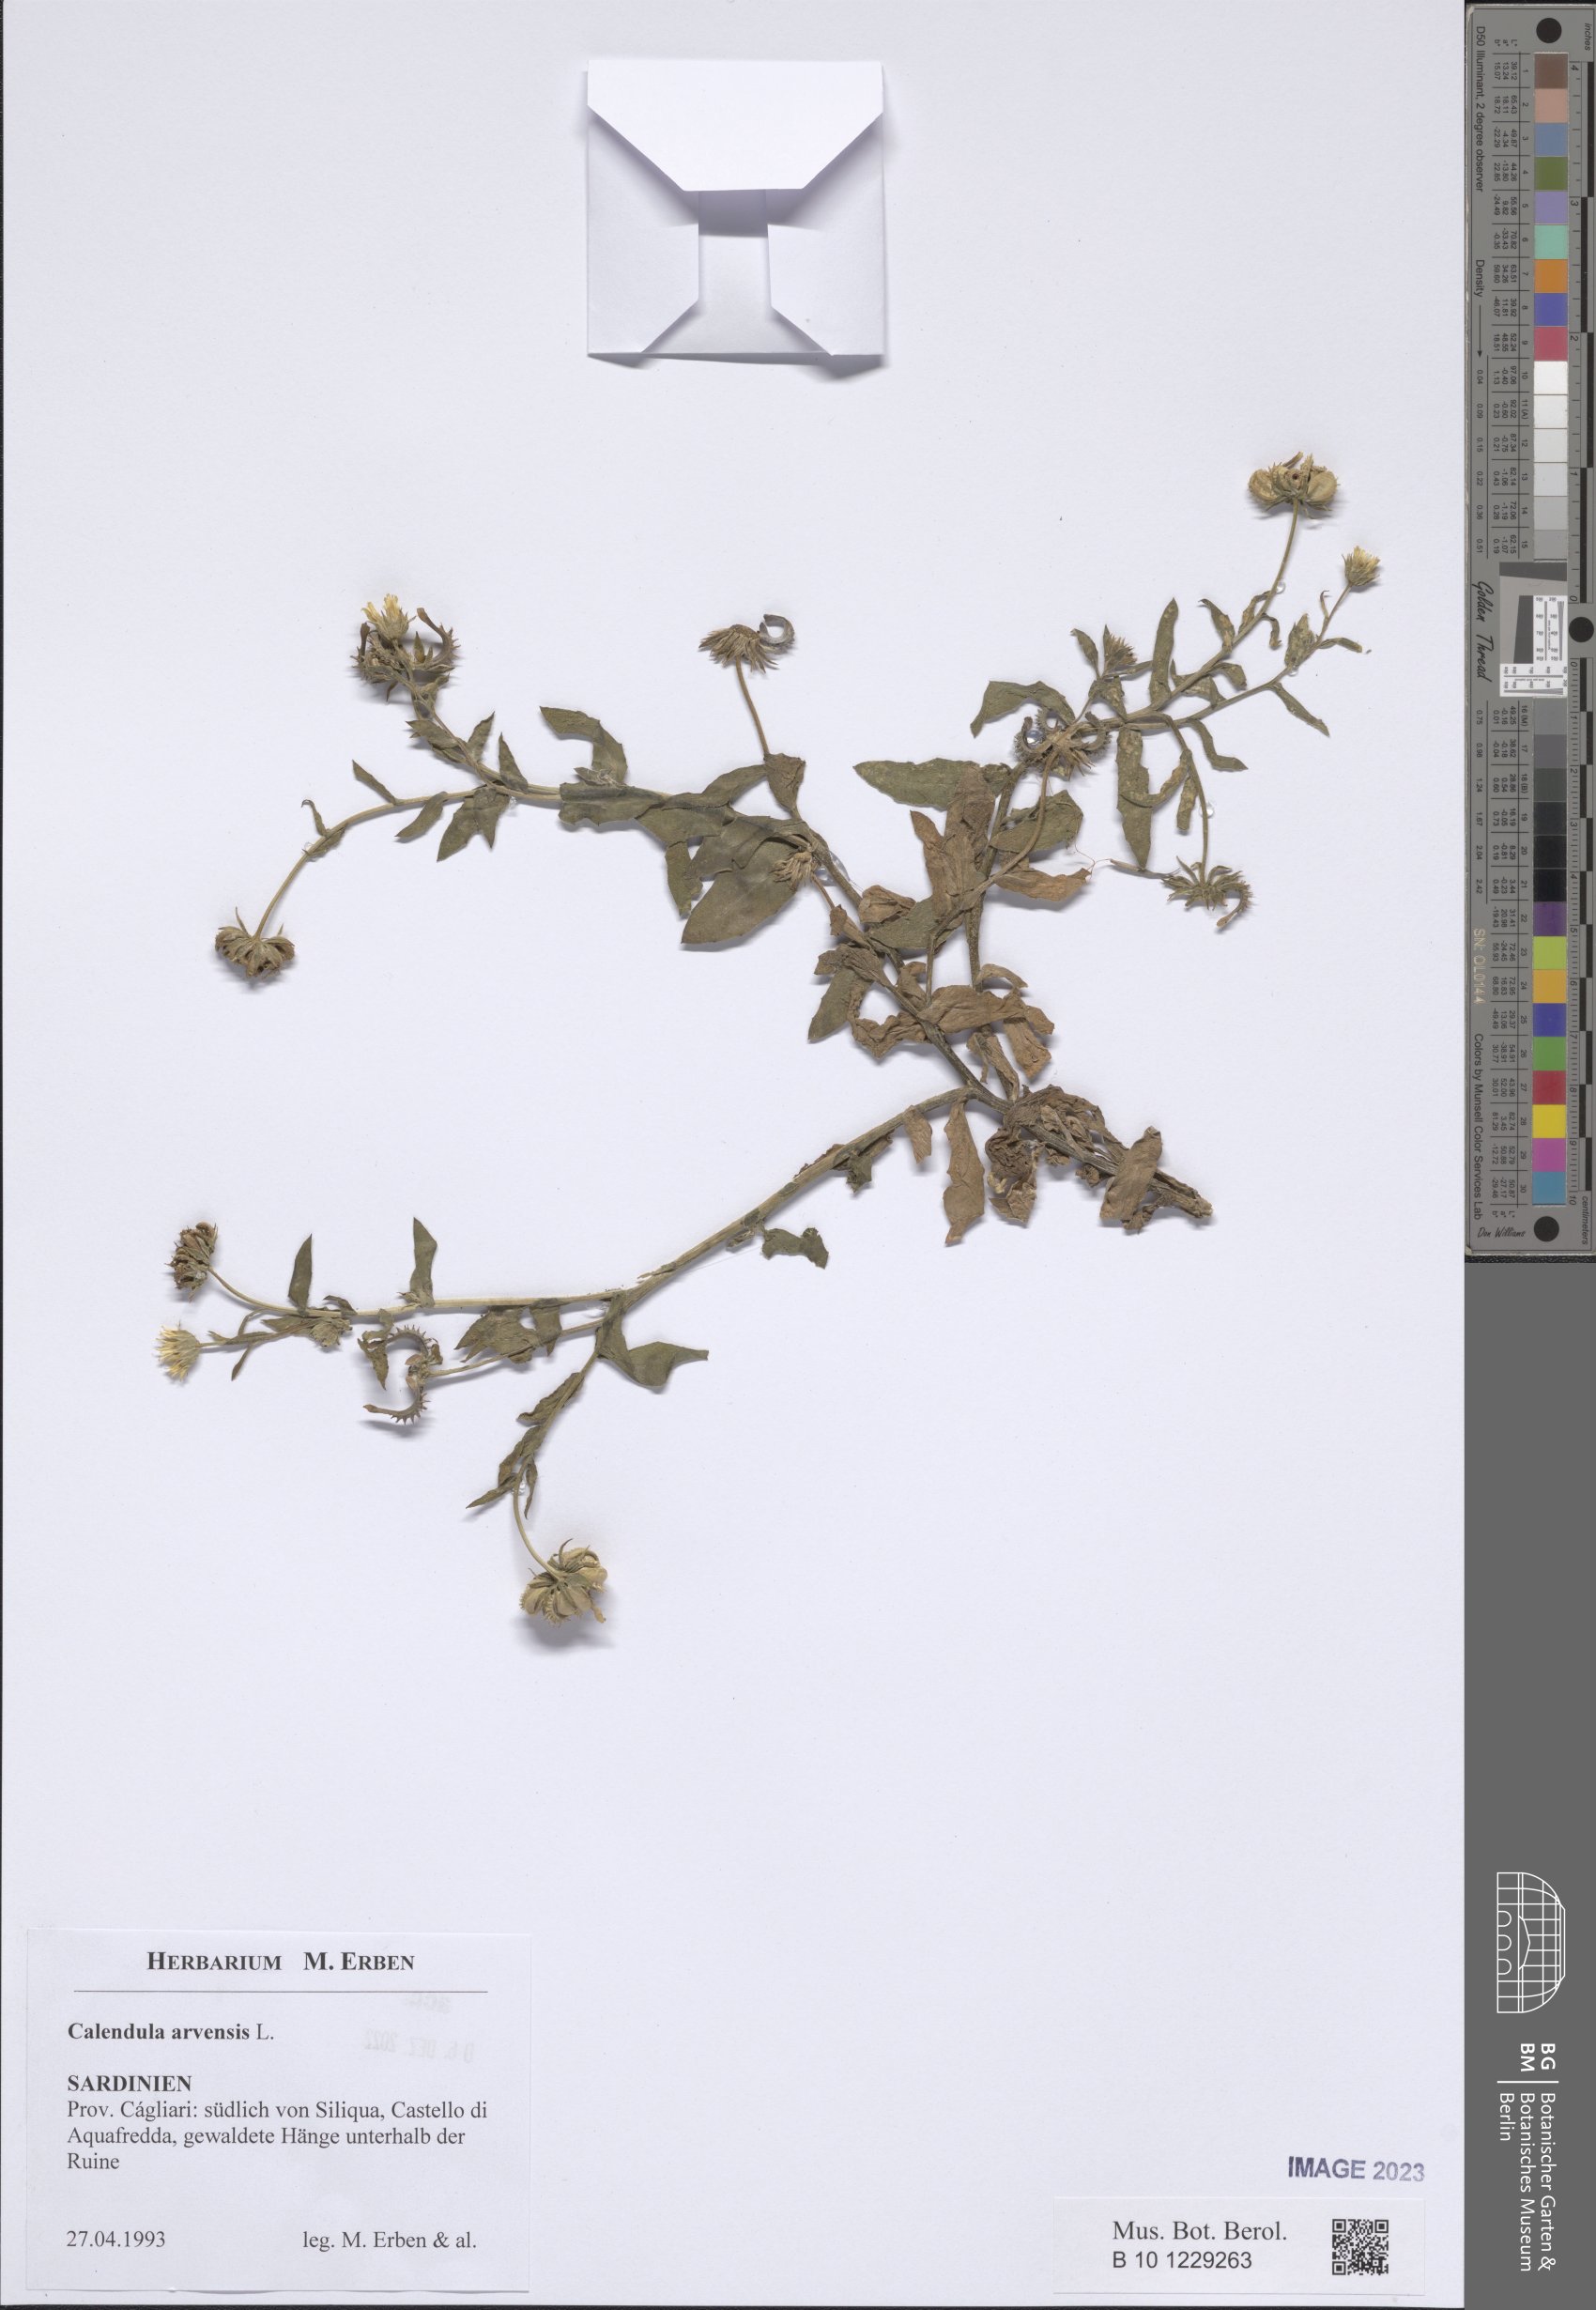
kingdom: Plantae
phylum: Tracheophyta
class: Magnoliopsida
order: Asterales
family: Asteraceae
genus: Calendula
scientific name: Calendula arvensis
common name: Field marigold
